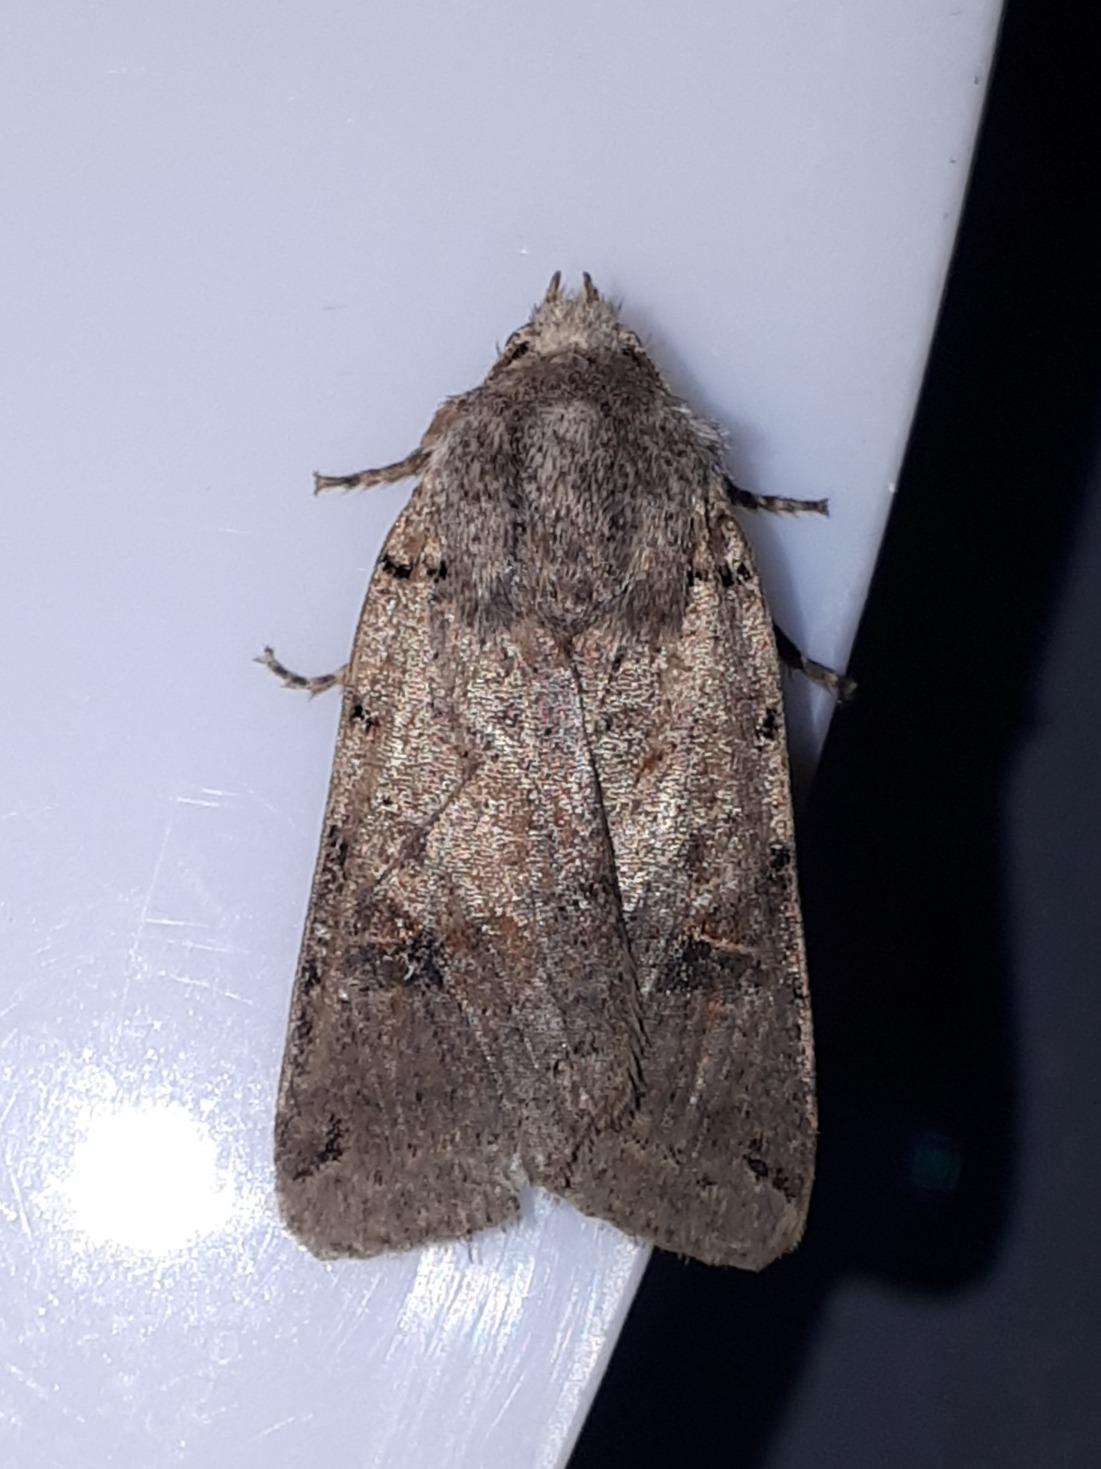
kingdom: Animalia
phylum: Arthropoda
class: Insecta
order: Lepidoptera
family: Noctuidae
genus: Agrochola
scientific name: Agrochola litura
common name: Kantplettet jordfarveugle
